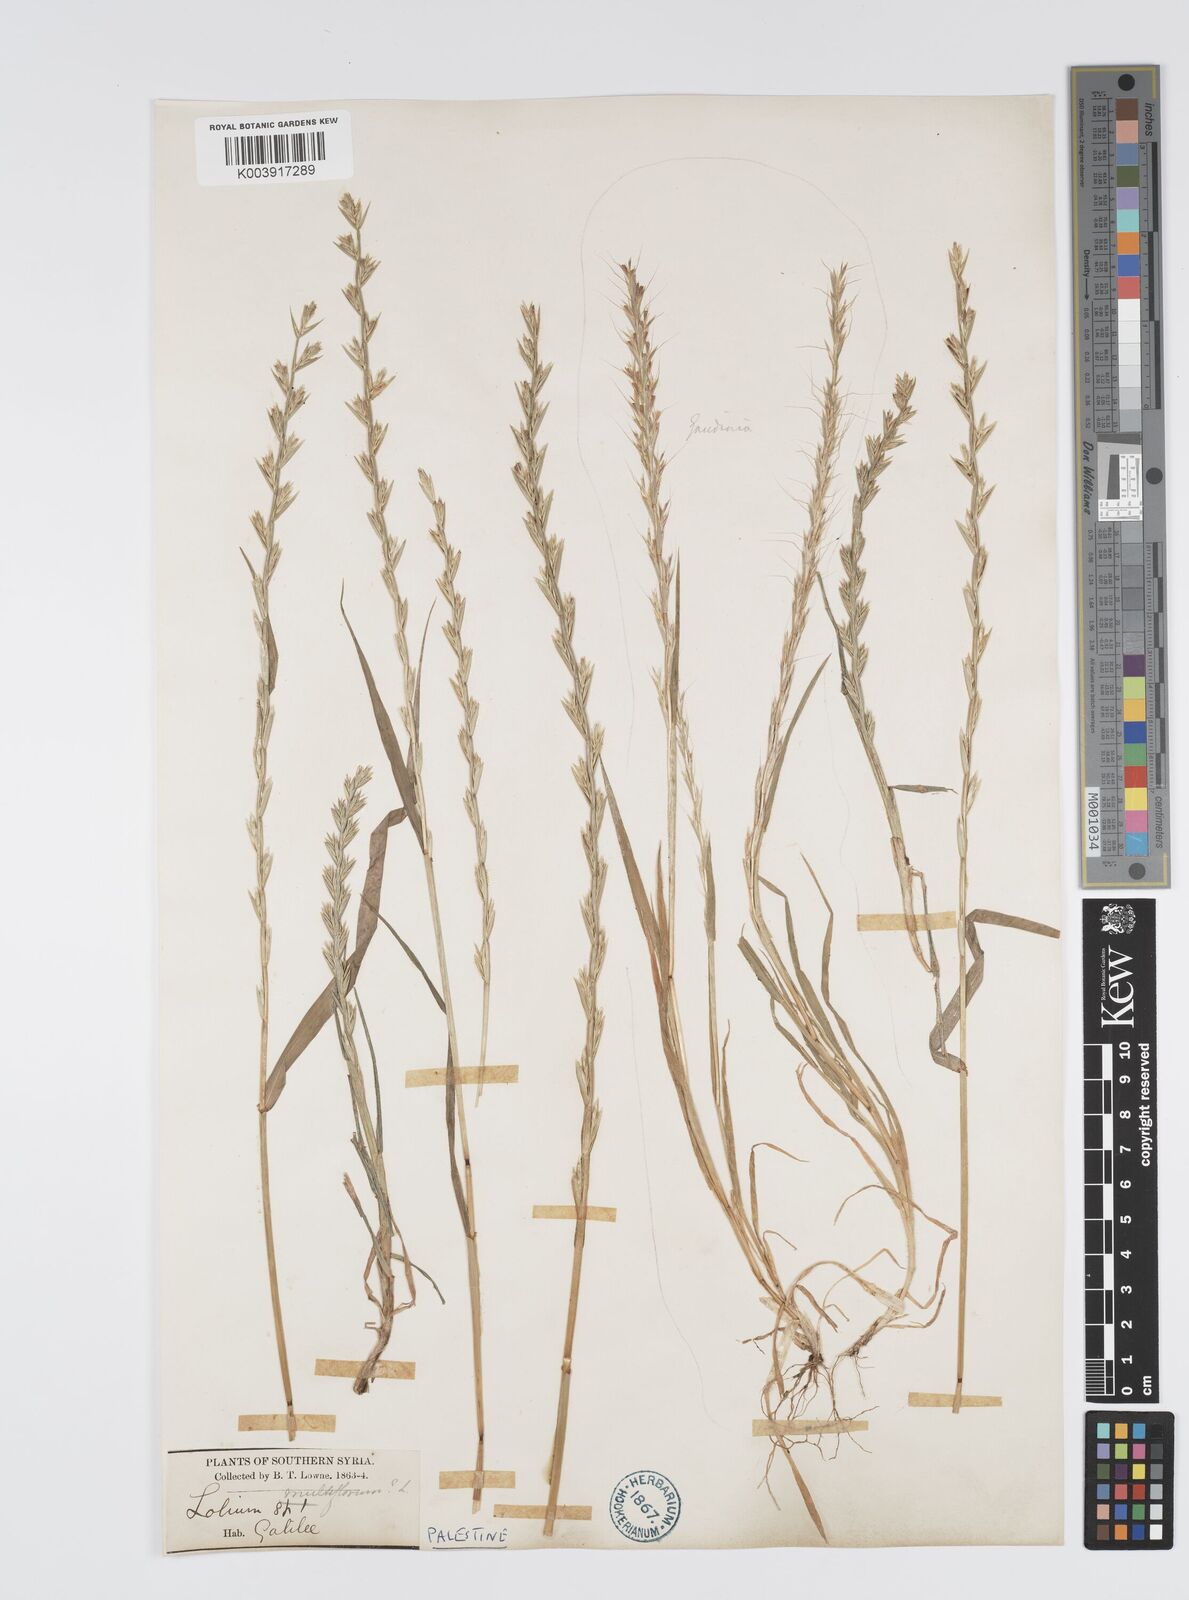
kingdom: Plantae
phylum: Tracheophyta
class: Liliopsida
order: Poales
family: Poaceae
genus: Lolium
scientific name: Lolium rigidum
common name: Wimmera ryegrass
